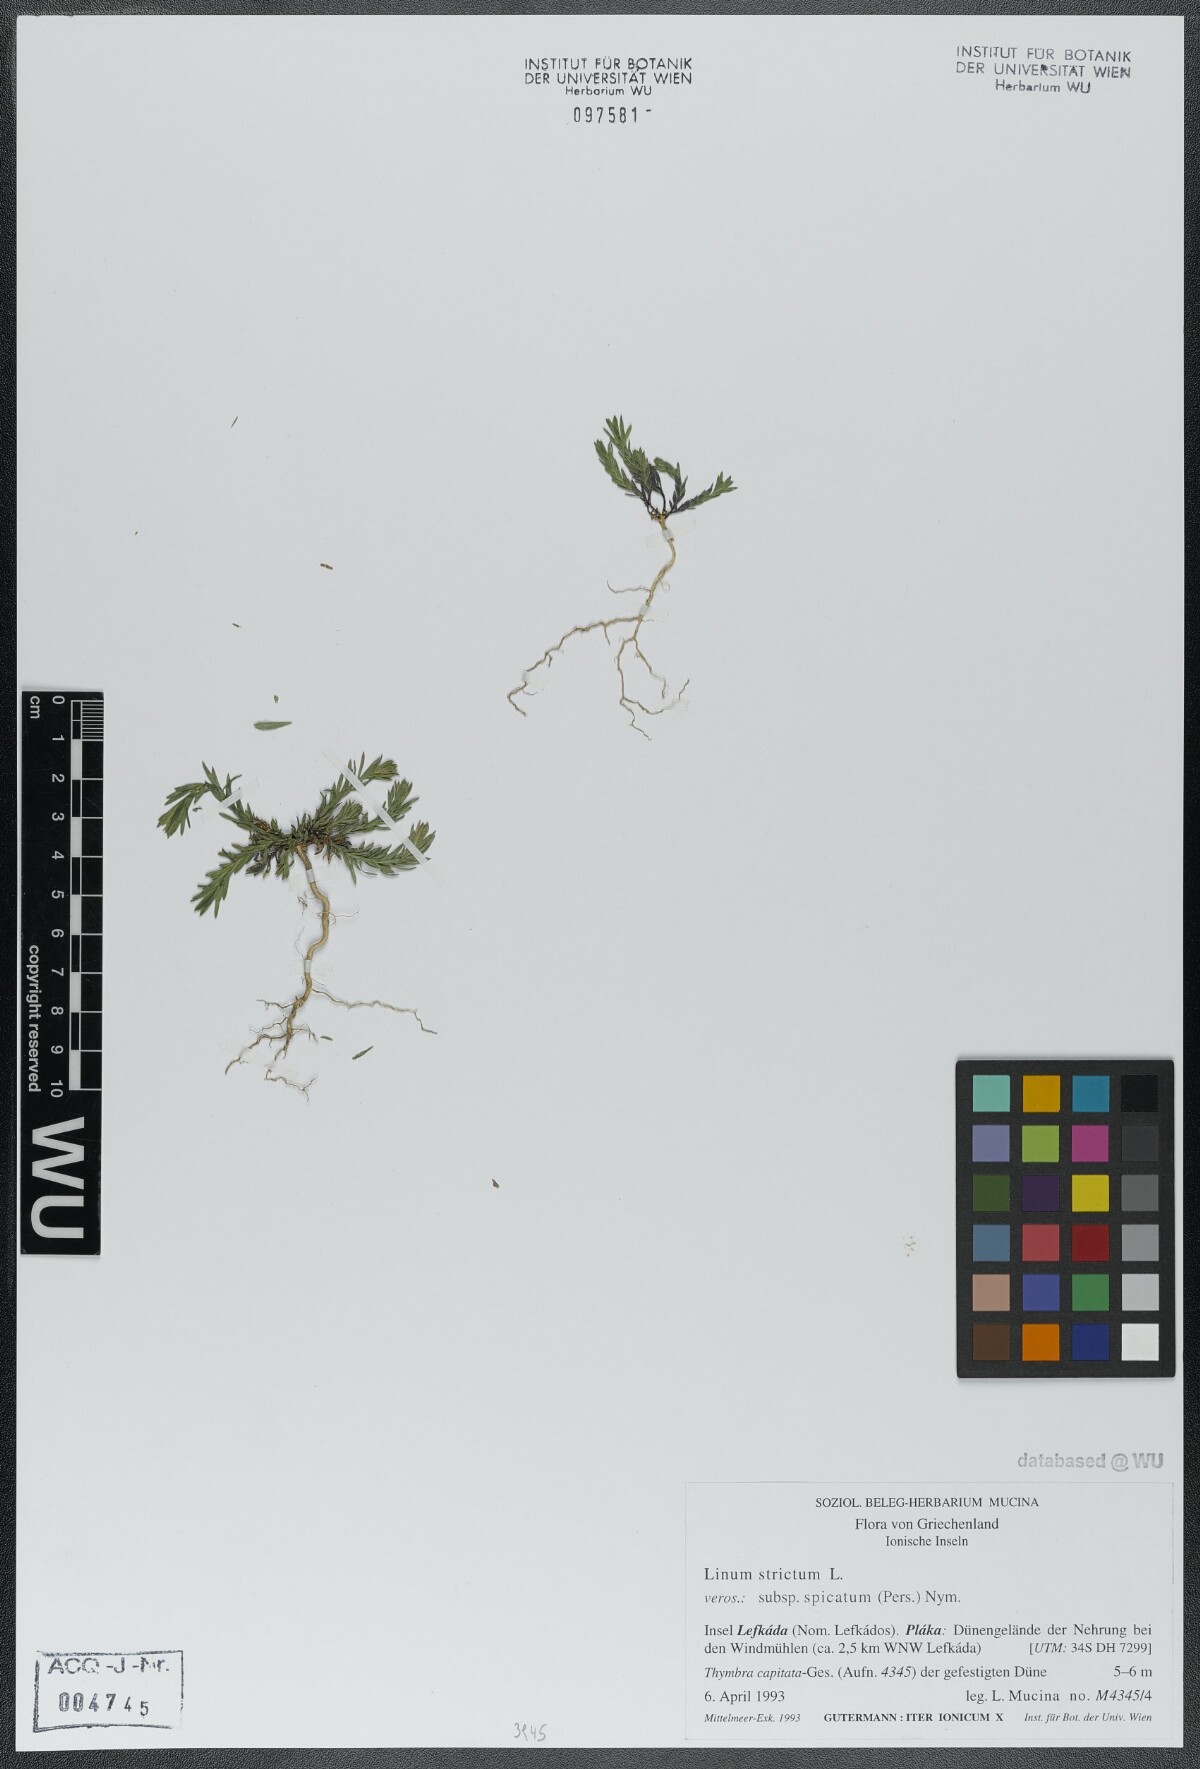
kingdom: Plantae
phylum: Tracheophyta
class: Magnoliopsida
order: Malpighiales
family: Linaceae
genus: Linum
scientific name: Linum strictum
